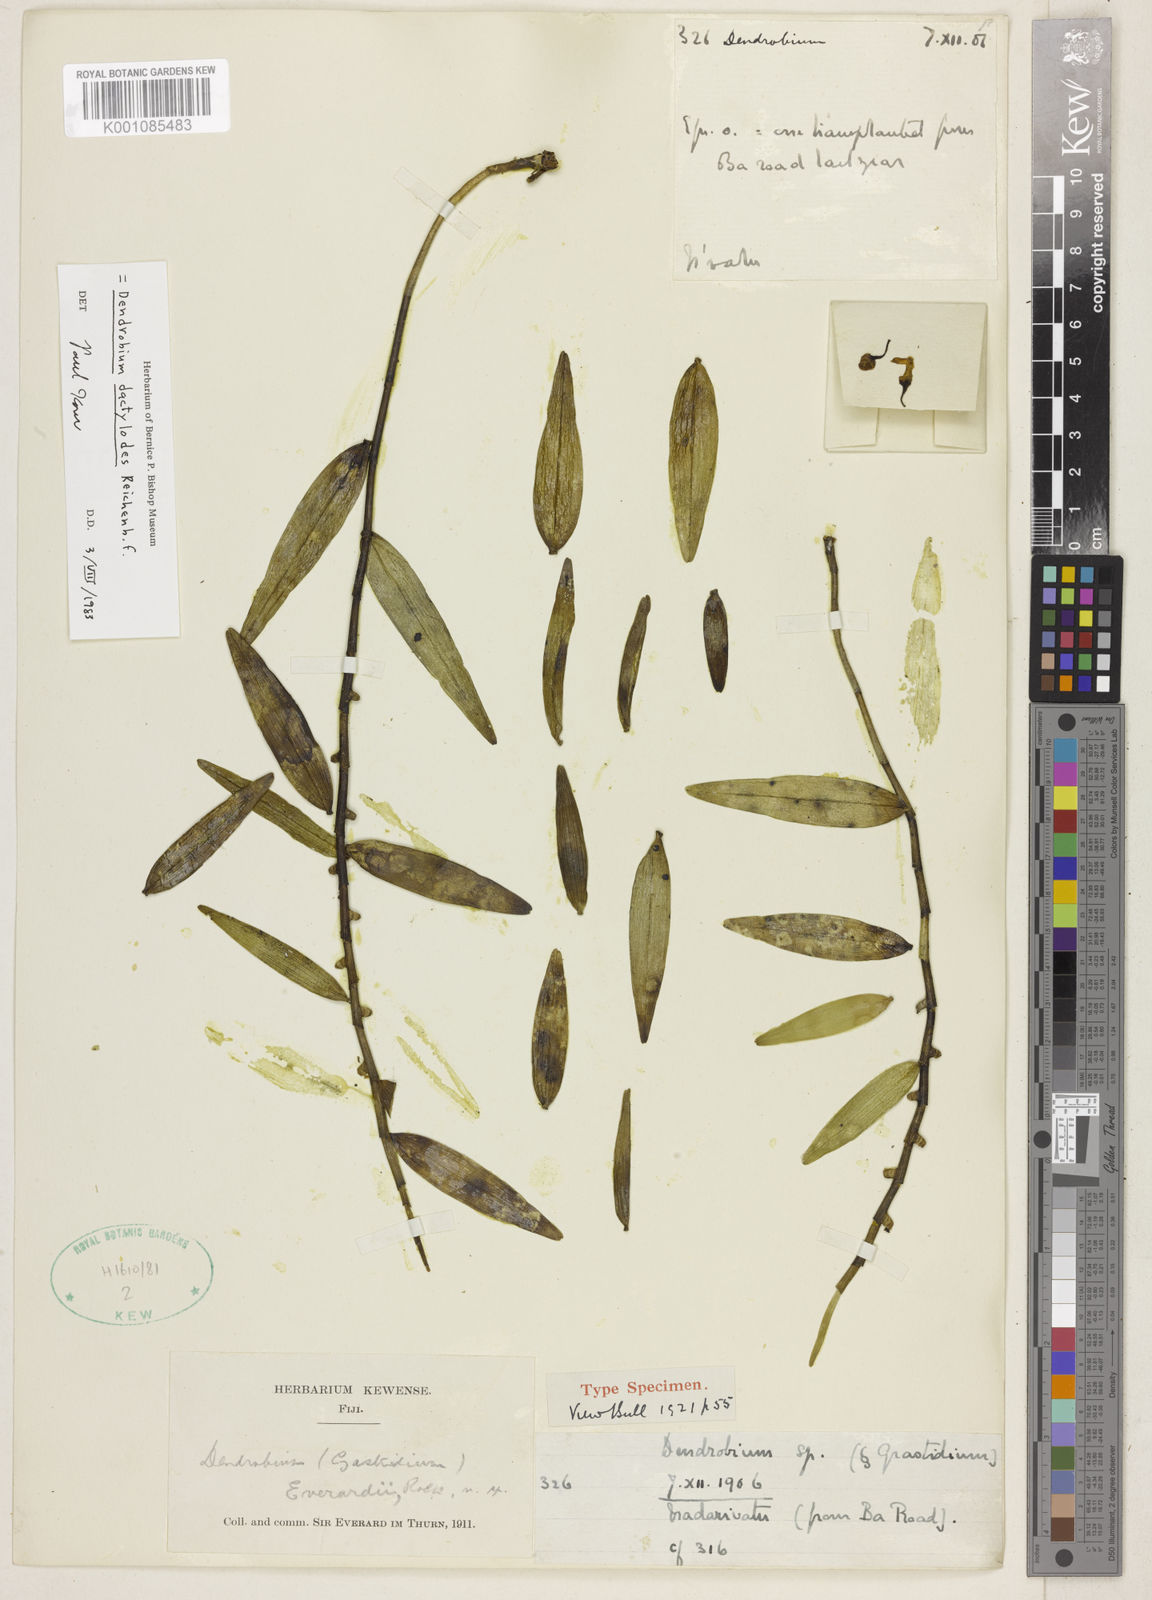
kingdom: Plantae
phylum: Tracheophyta
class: Liliopsida
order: Asparagales
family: Orchidaceae
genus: Dendrobium
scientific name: Dendrobium dactylodes
